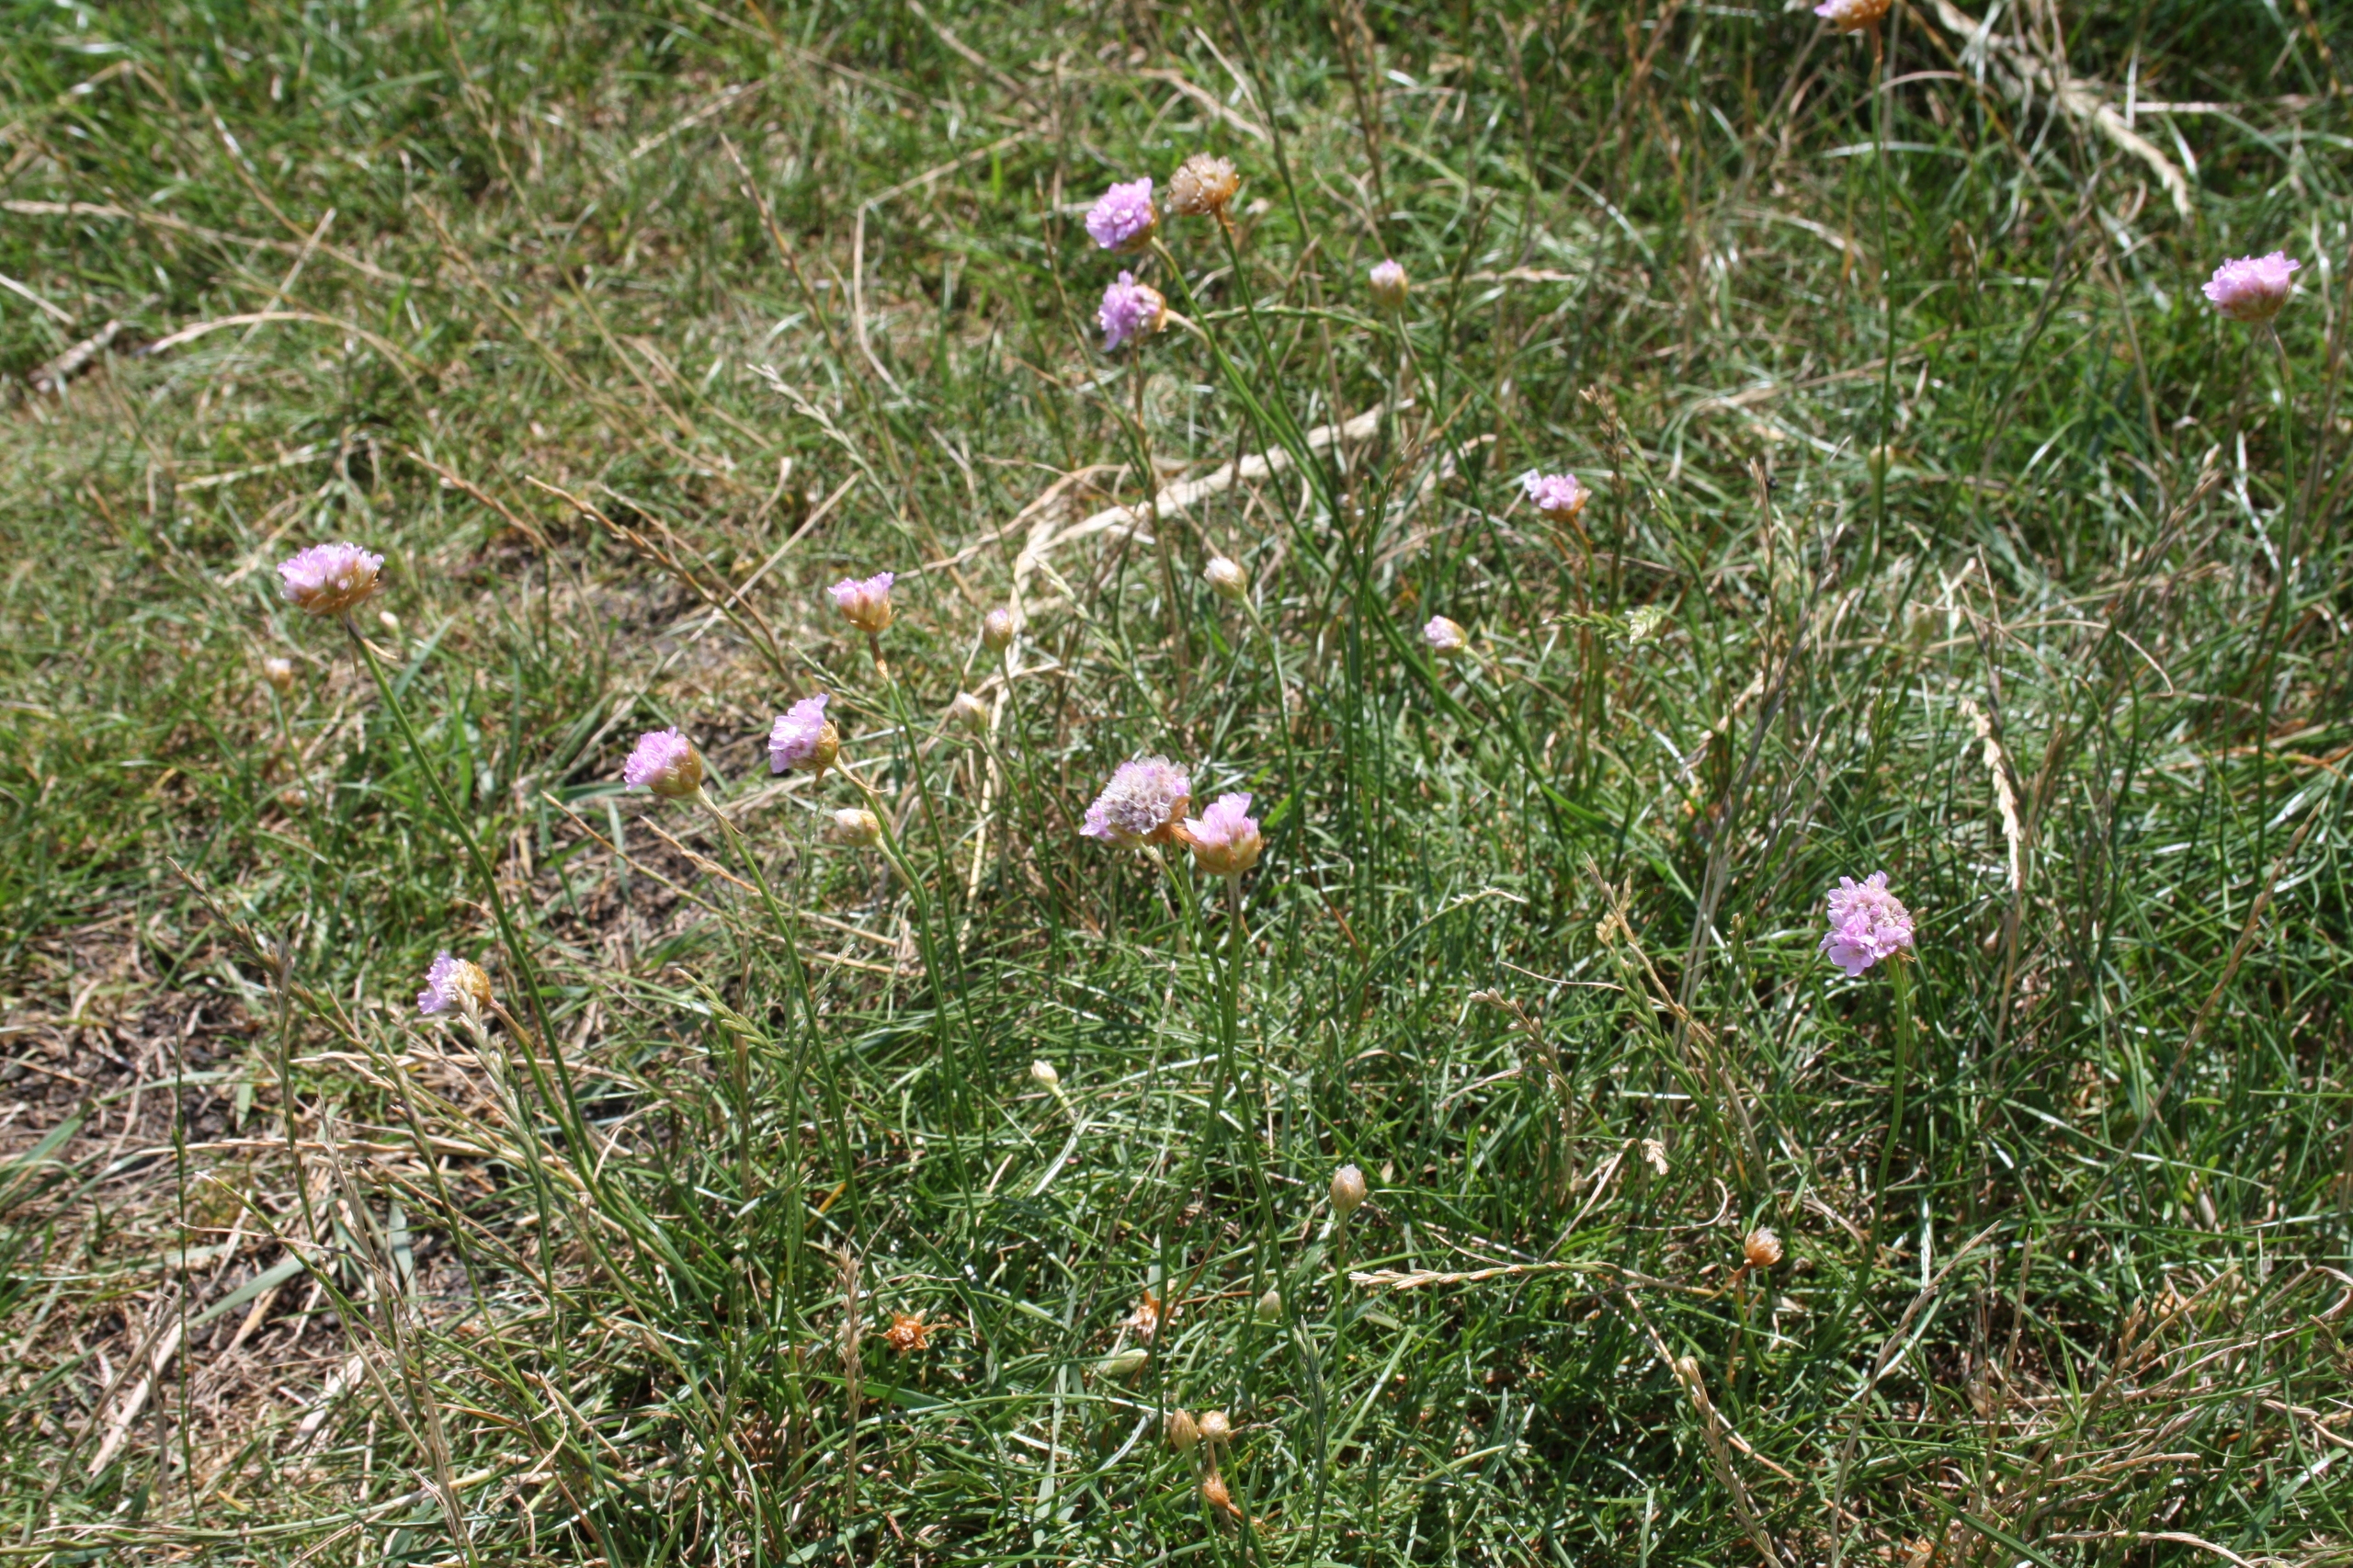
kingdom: Plantae
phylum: Tracheophyta
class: Magnoliopsida
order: Caryophyllales
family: Plumbaginaceae
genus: Armeria
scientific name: Armeria maritima
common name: Engelskgræs
